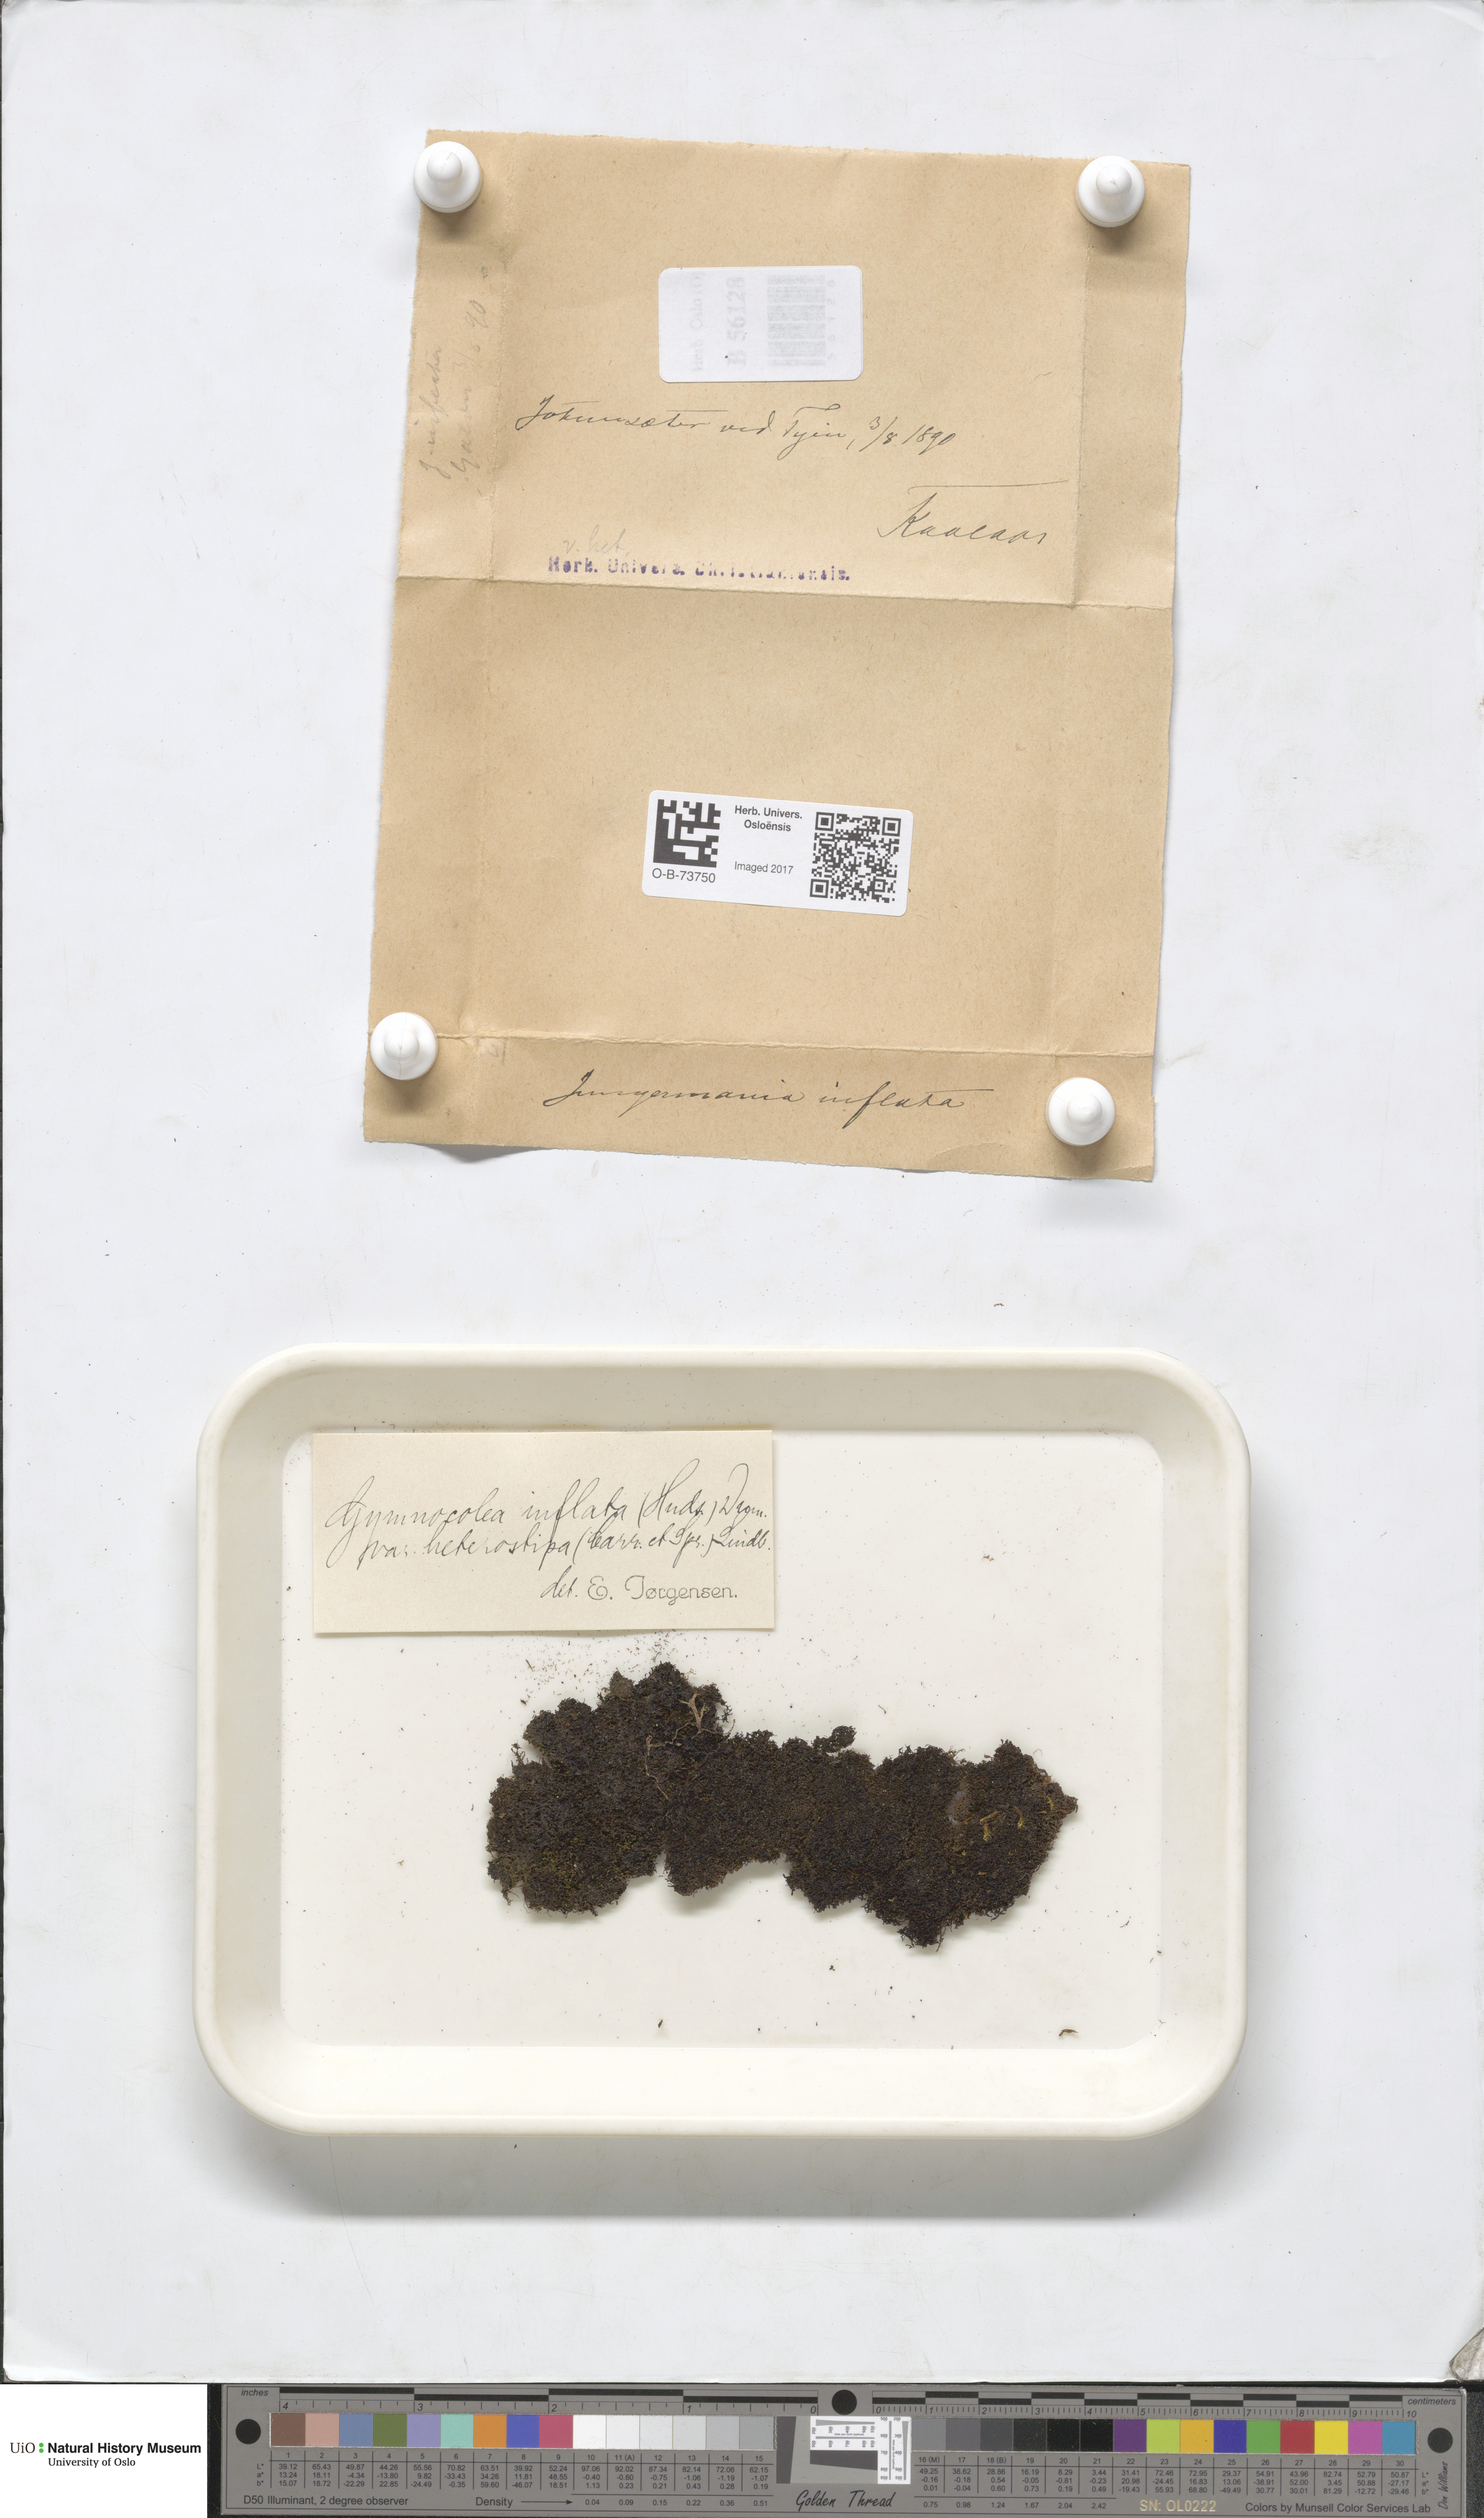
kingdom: Plantae
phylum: Marchantiophyta
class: Jungermanniopsida
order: Jungermanniales
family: Anastrophyllaceae
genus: Gymnocolea
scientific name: Gymnocolea inflata
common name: Inflated notchwort
